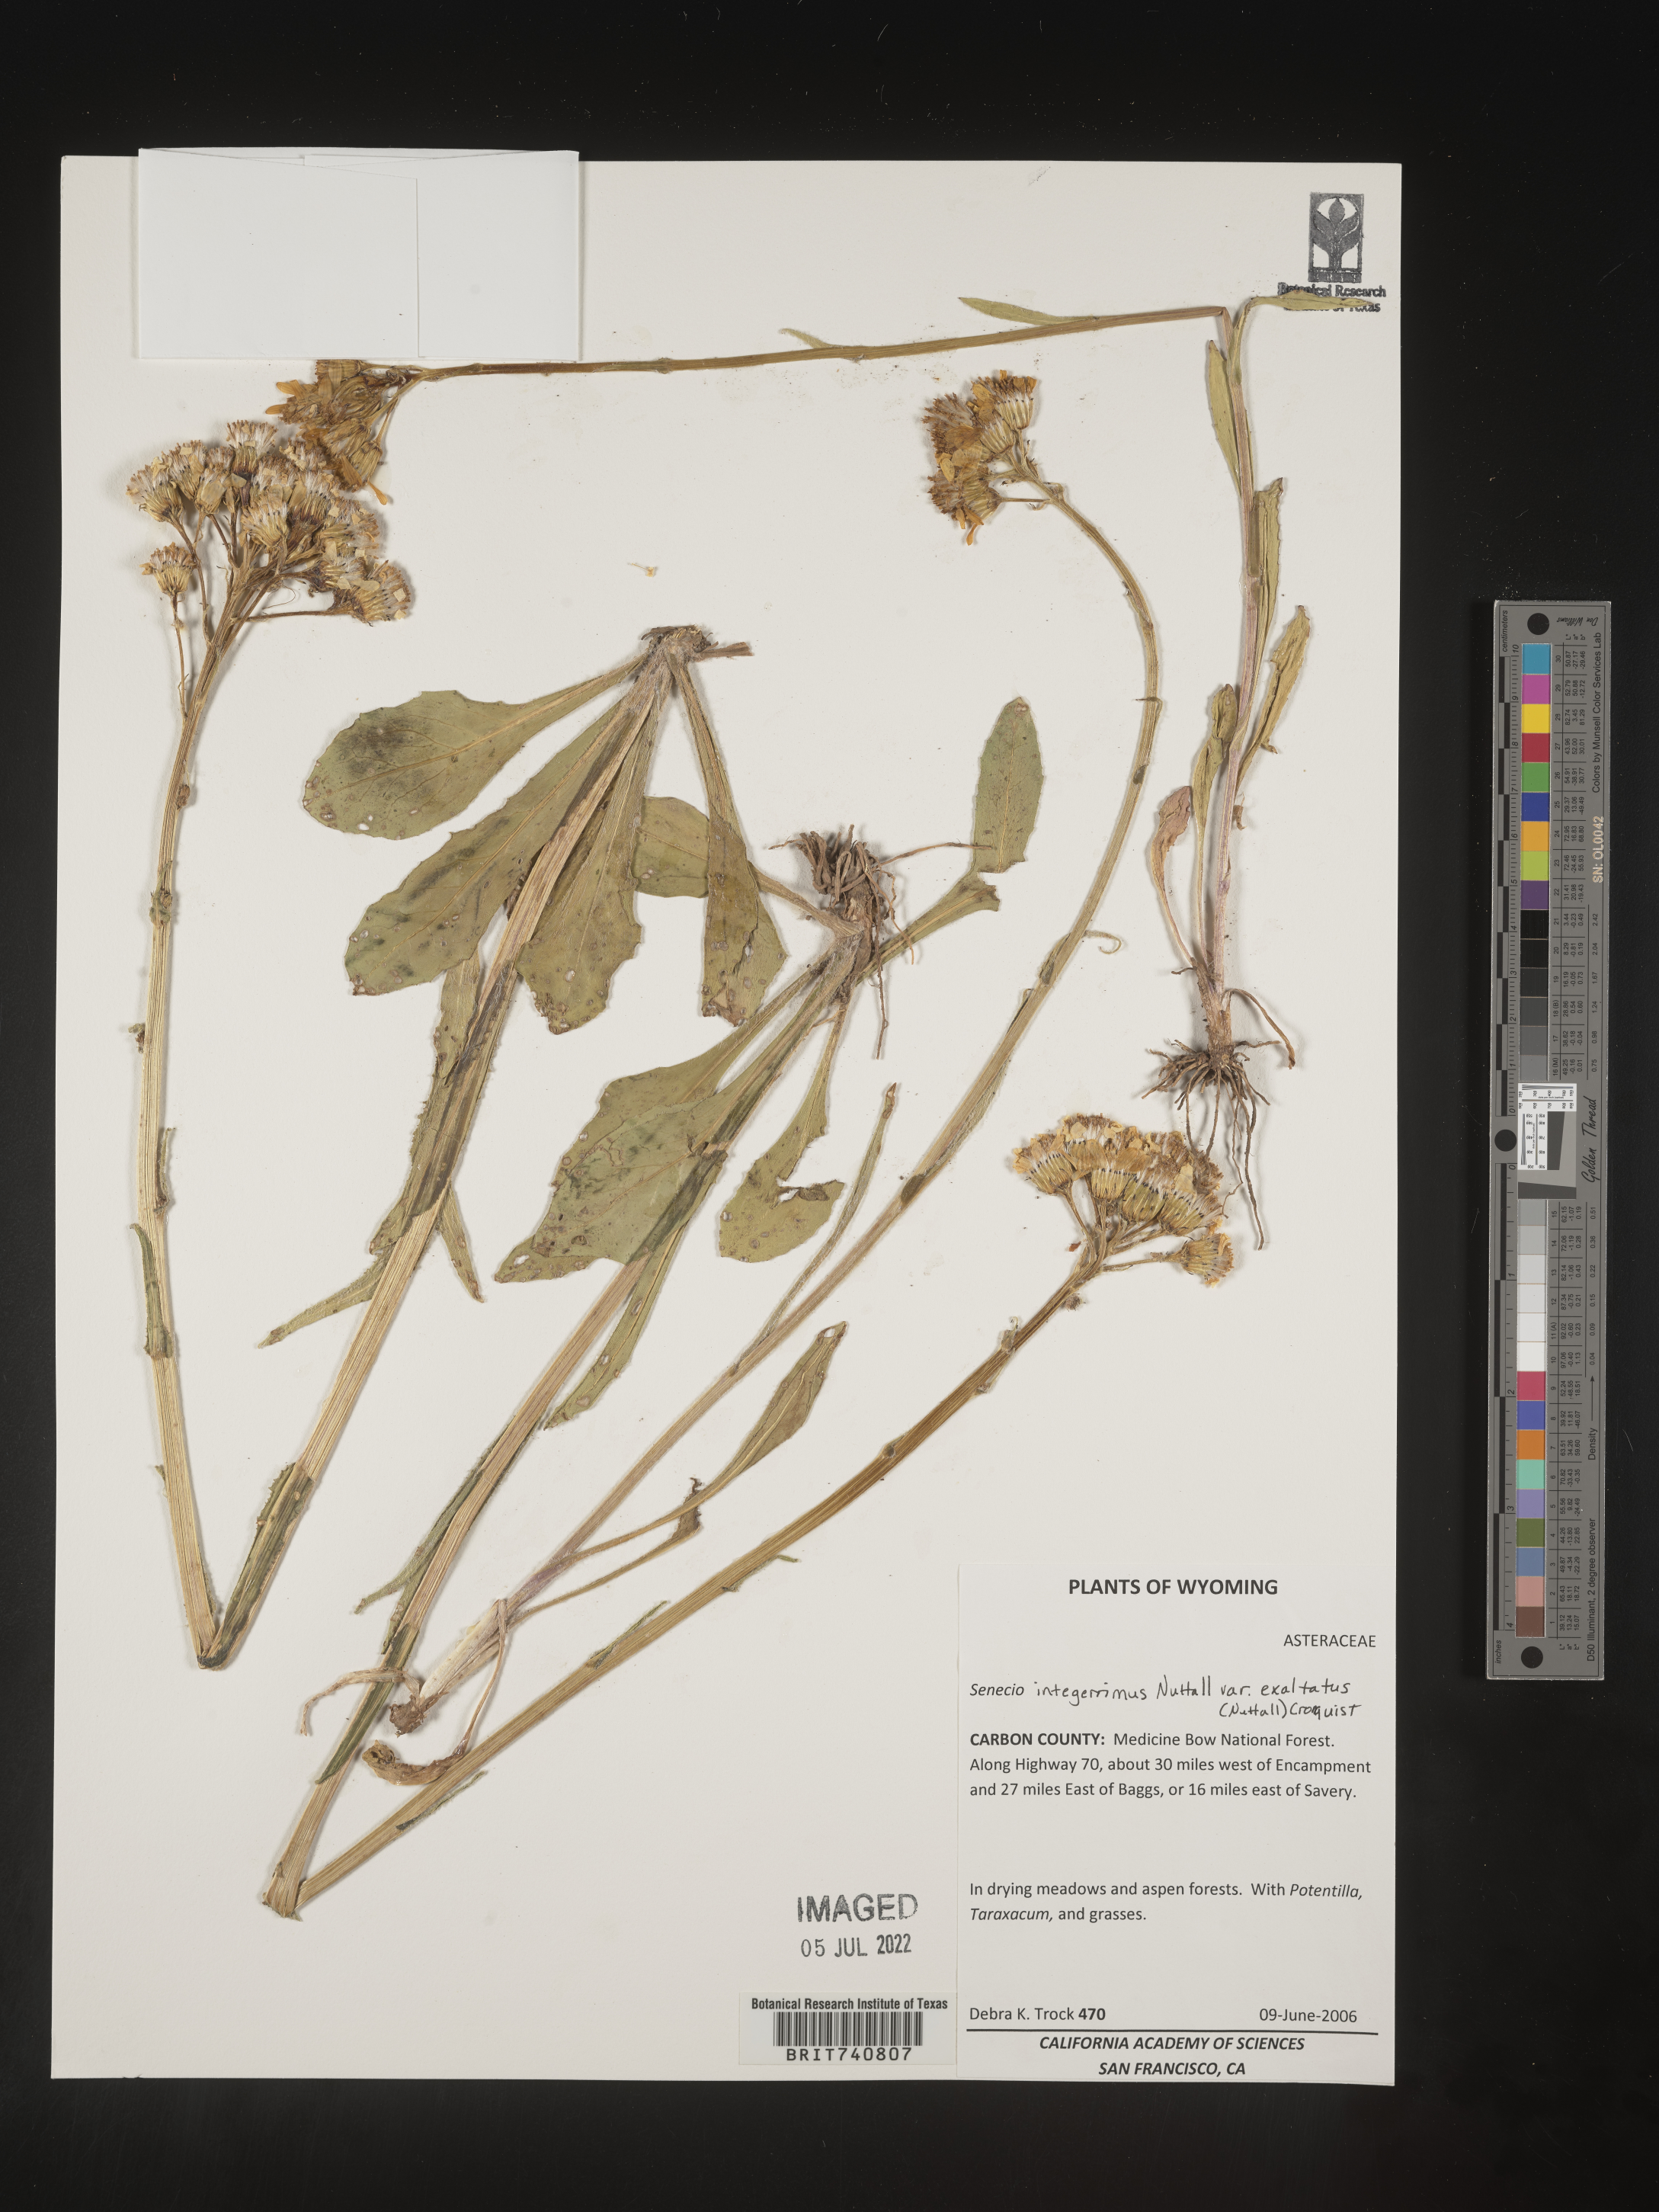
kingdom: Plantae
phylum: Tracheophyta
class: Magnoliopsida
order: Asterales
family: Asteraceae
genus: Senecio
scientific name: Senecio integerrimus
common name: Gaugeplant
